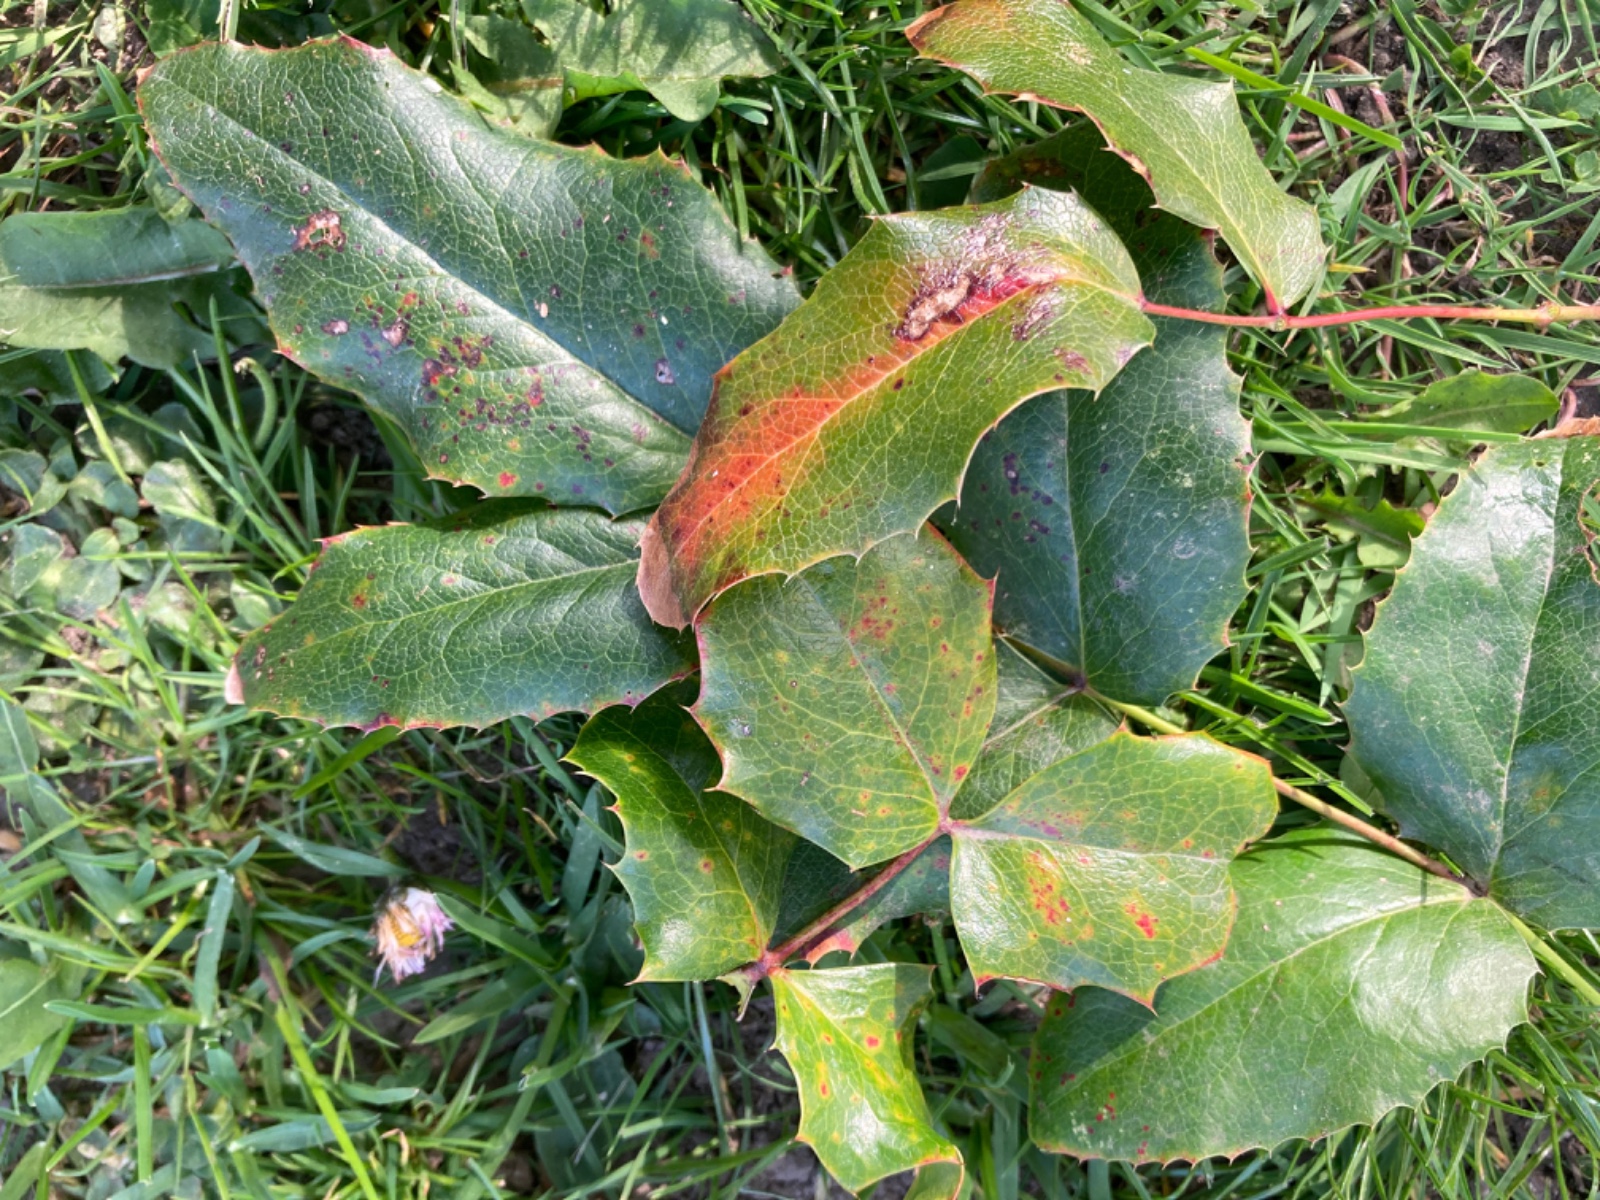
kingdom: Fungi
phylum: Basidiomycota
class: Pucciniomycetes
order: Pucciniales
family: Pucciniaceae
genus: Cumminsiella
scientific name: Cumminsiella mirabilissima
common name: mahonierust
